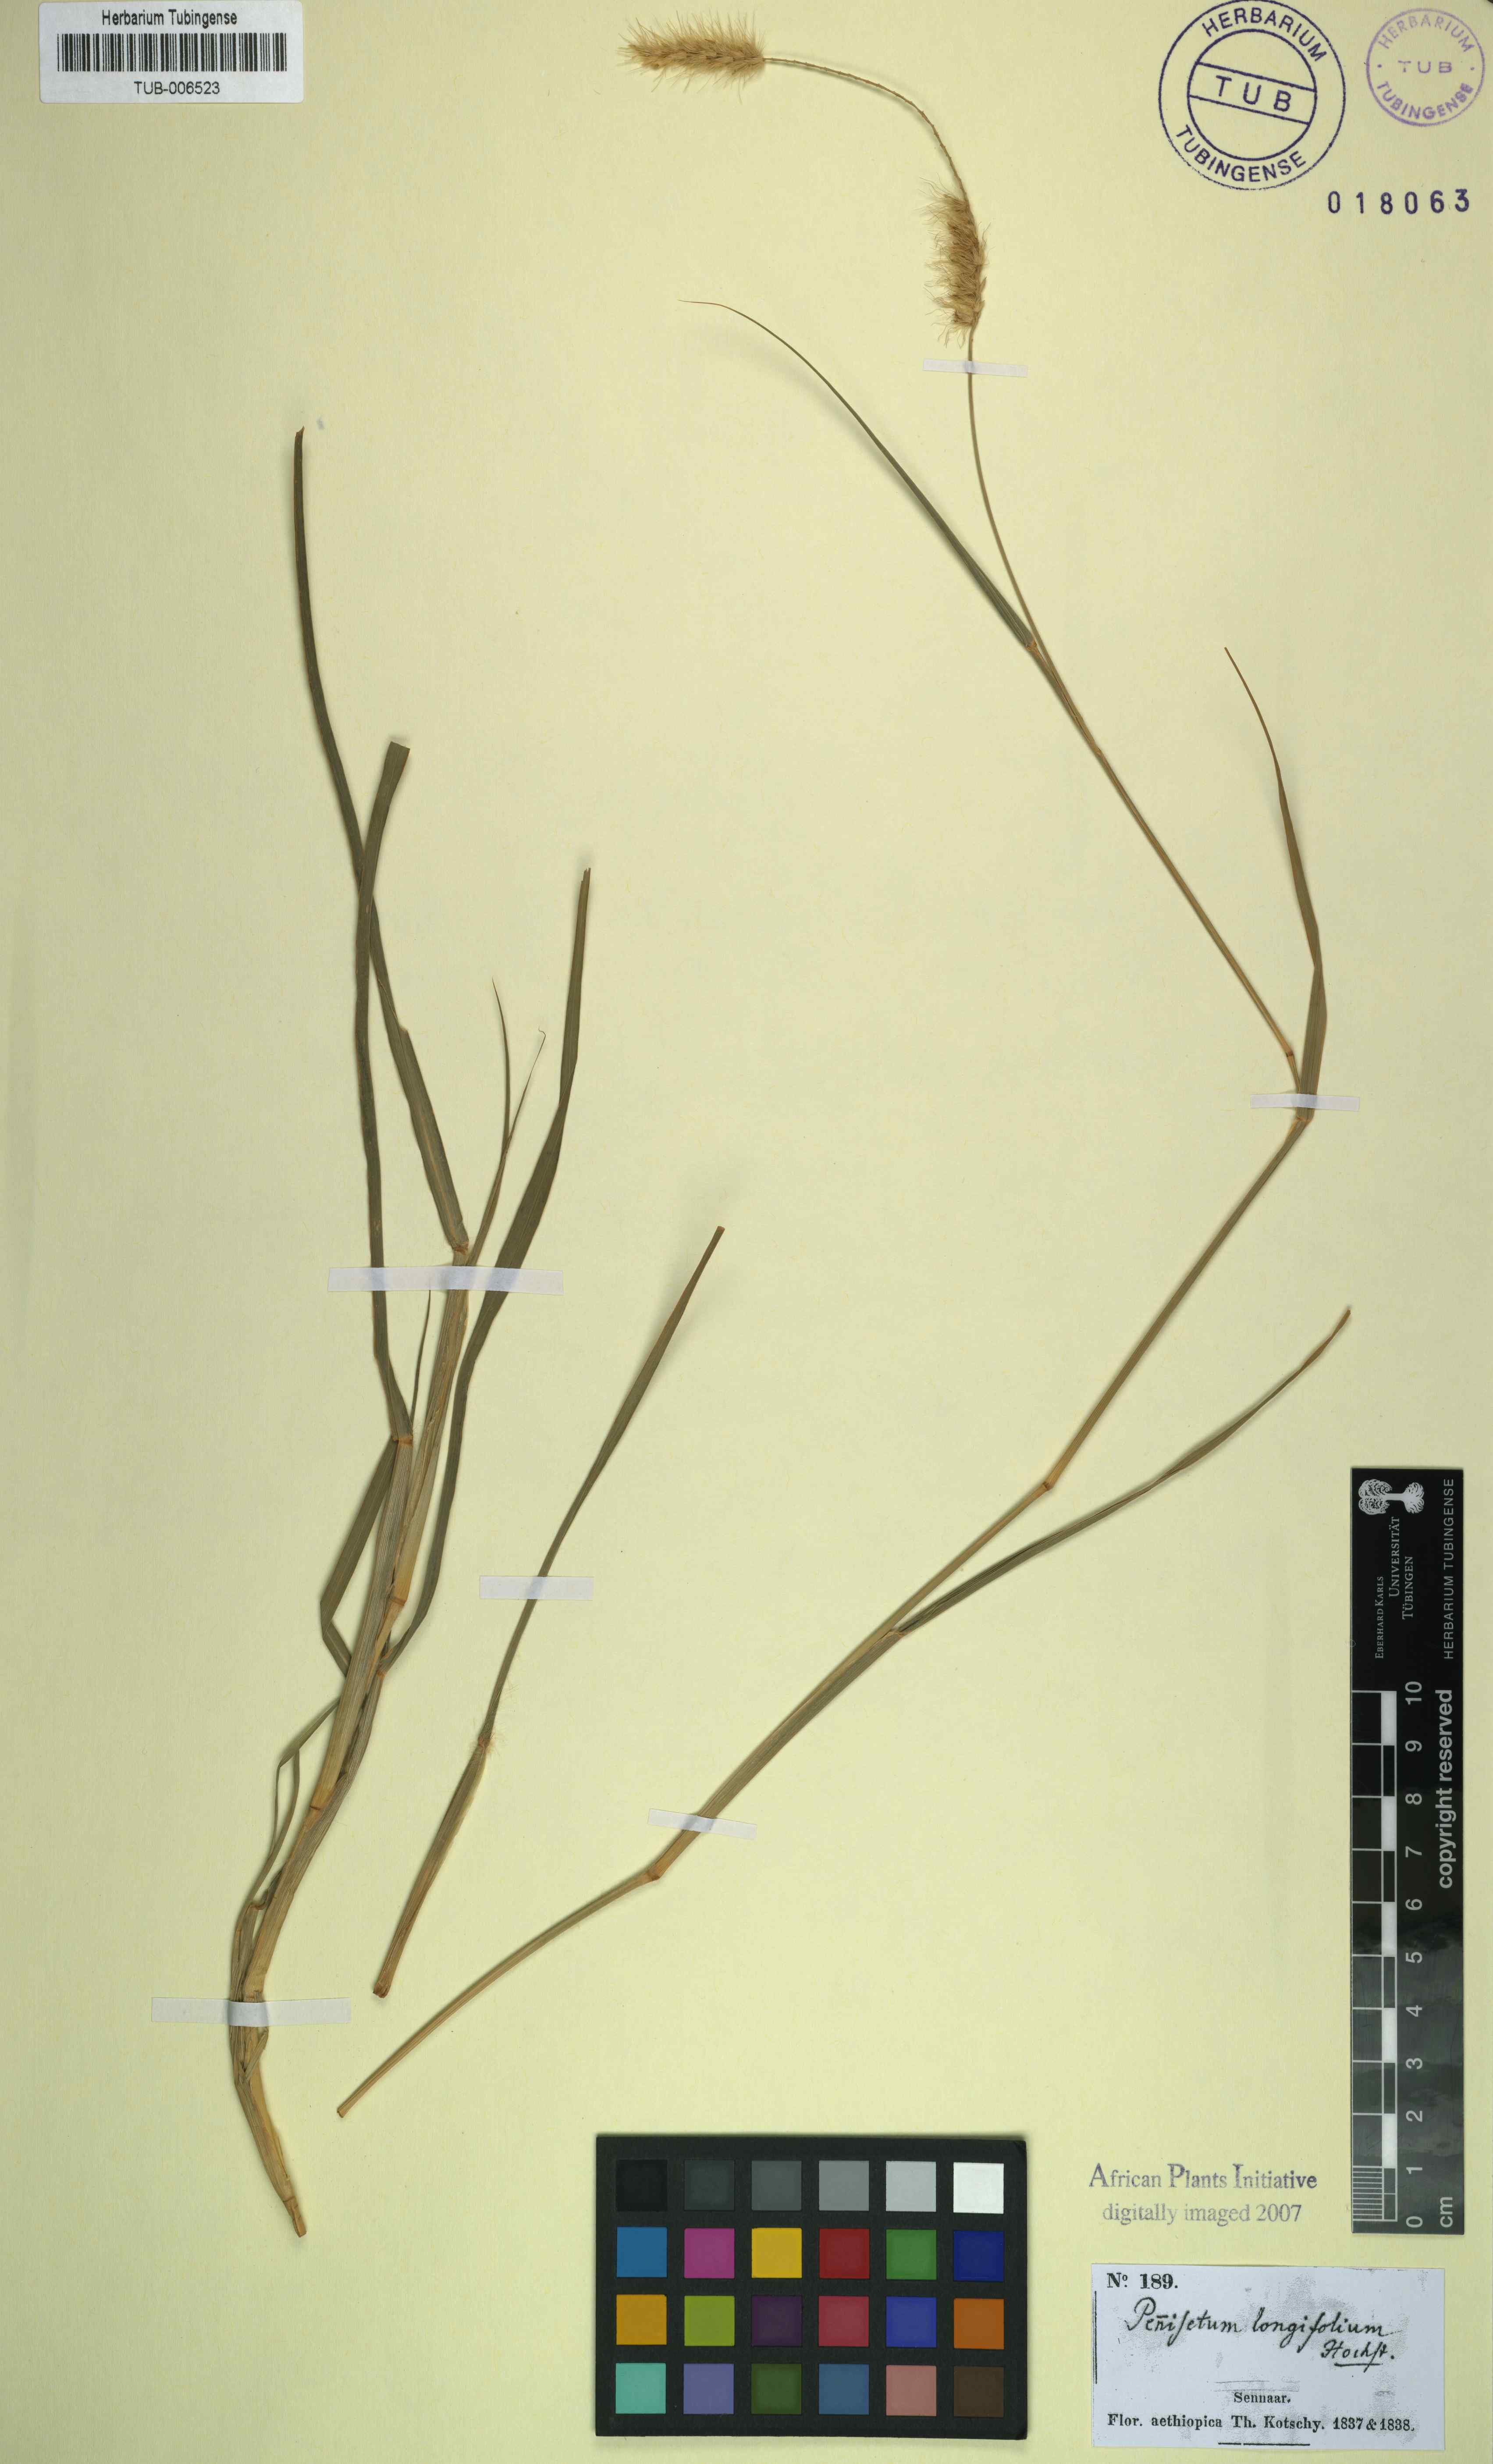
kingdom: Plantae
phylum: Tracheophyta
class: Liliopsida
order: Poales
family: Poaceae
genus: Cenchrus
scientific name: Cenchrus ciliaris
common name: Buffelgrass
